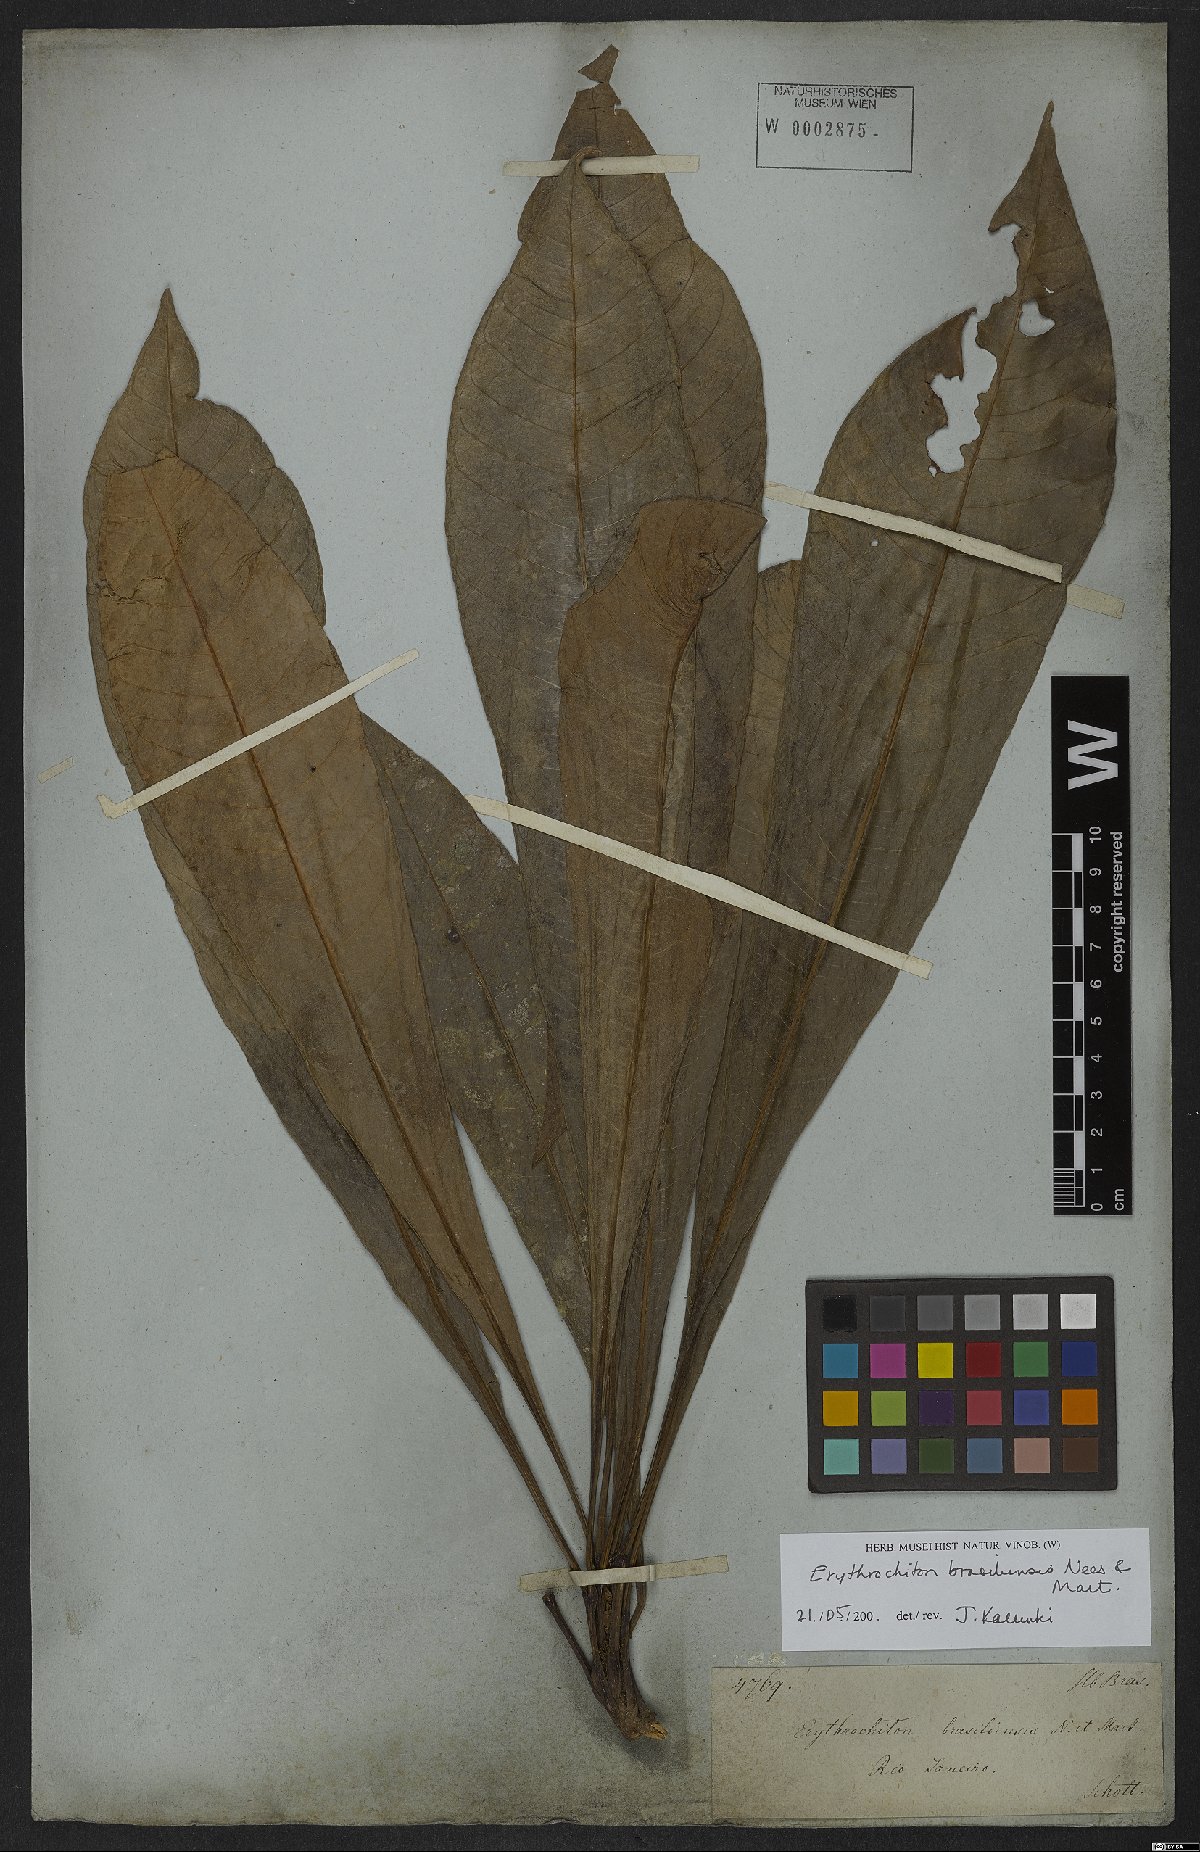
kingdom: Plantae
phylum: Tracheophyta
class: Magnoliopsida
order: Sapindales
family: Rutaceae
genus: Erythrochiton
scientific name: Erythrochiton brasiliensis
